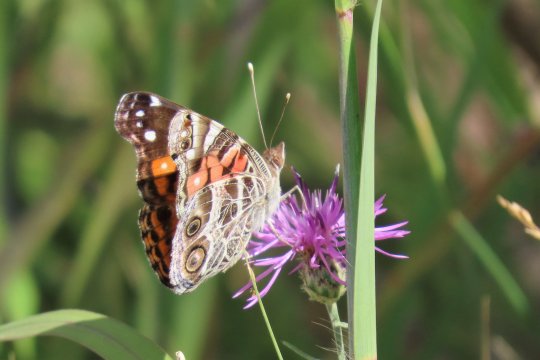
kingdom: Animalia
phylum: Arthropoda
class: Insecta
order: Lepidoptera
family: Nymphalidae
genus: Vanessa
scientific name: Vanessa virginiensis
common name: American Lady
